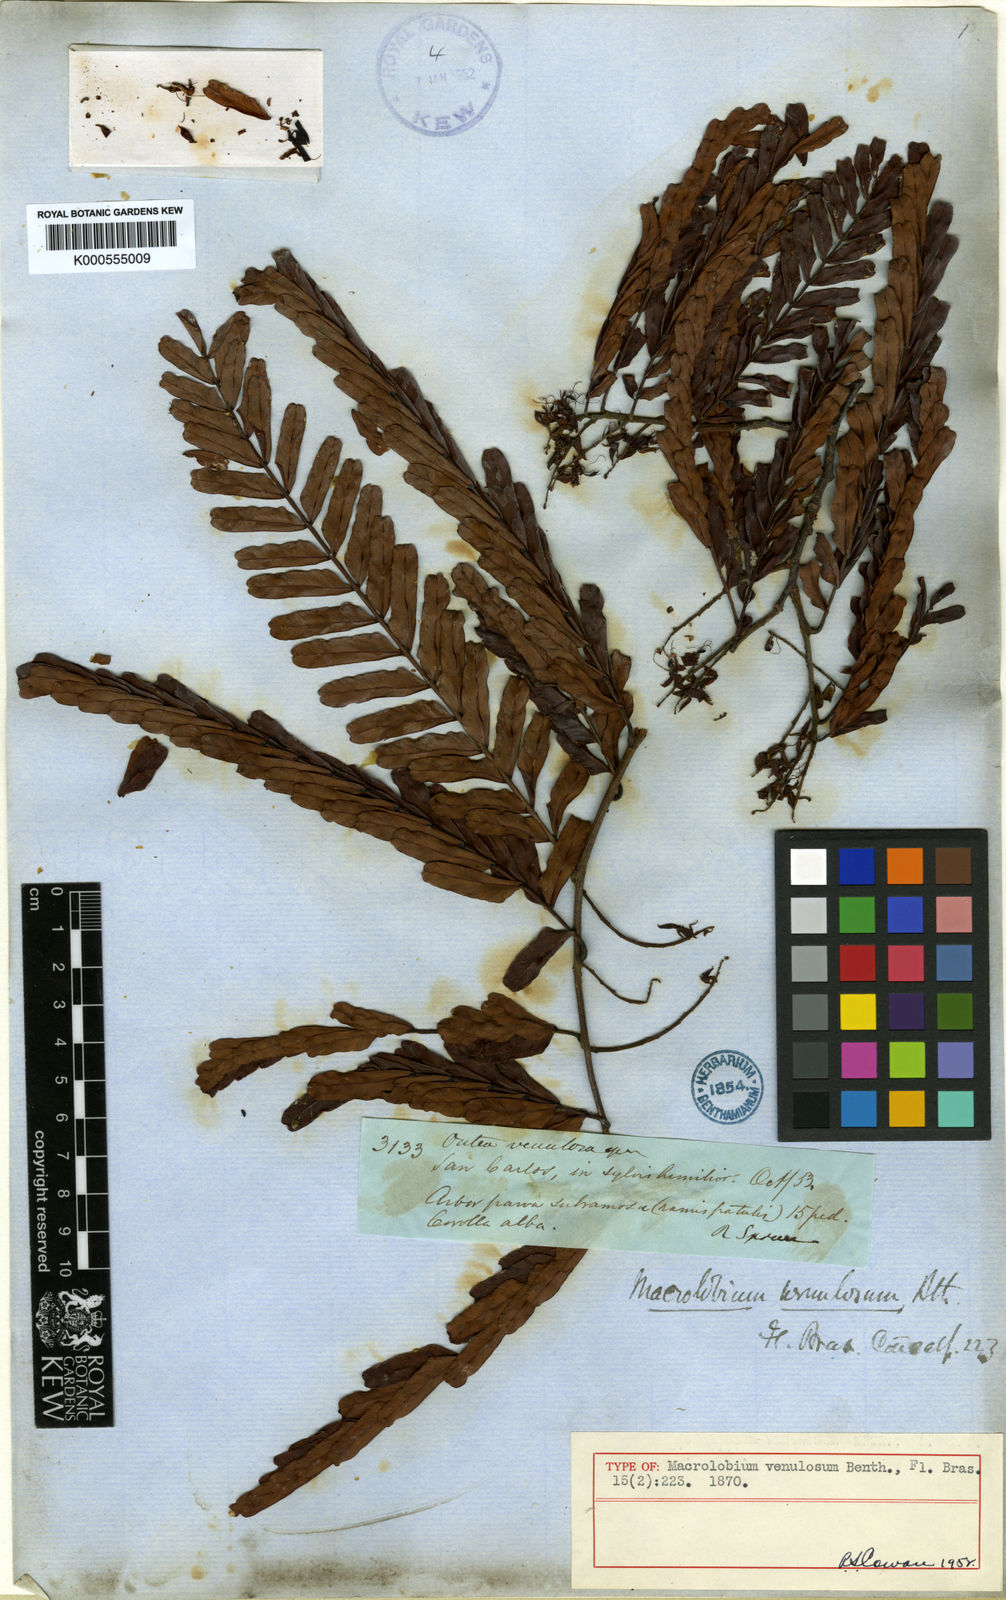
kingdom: Plantae
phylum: Tracheophyta
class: Magnoliopsida
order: Fabales
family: Fabaceae
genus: Macrolobium
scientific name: Macrolobium venulosum
